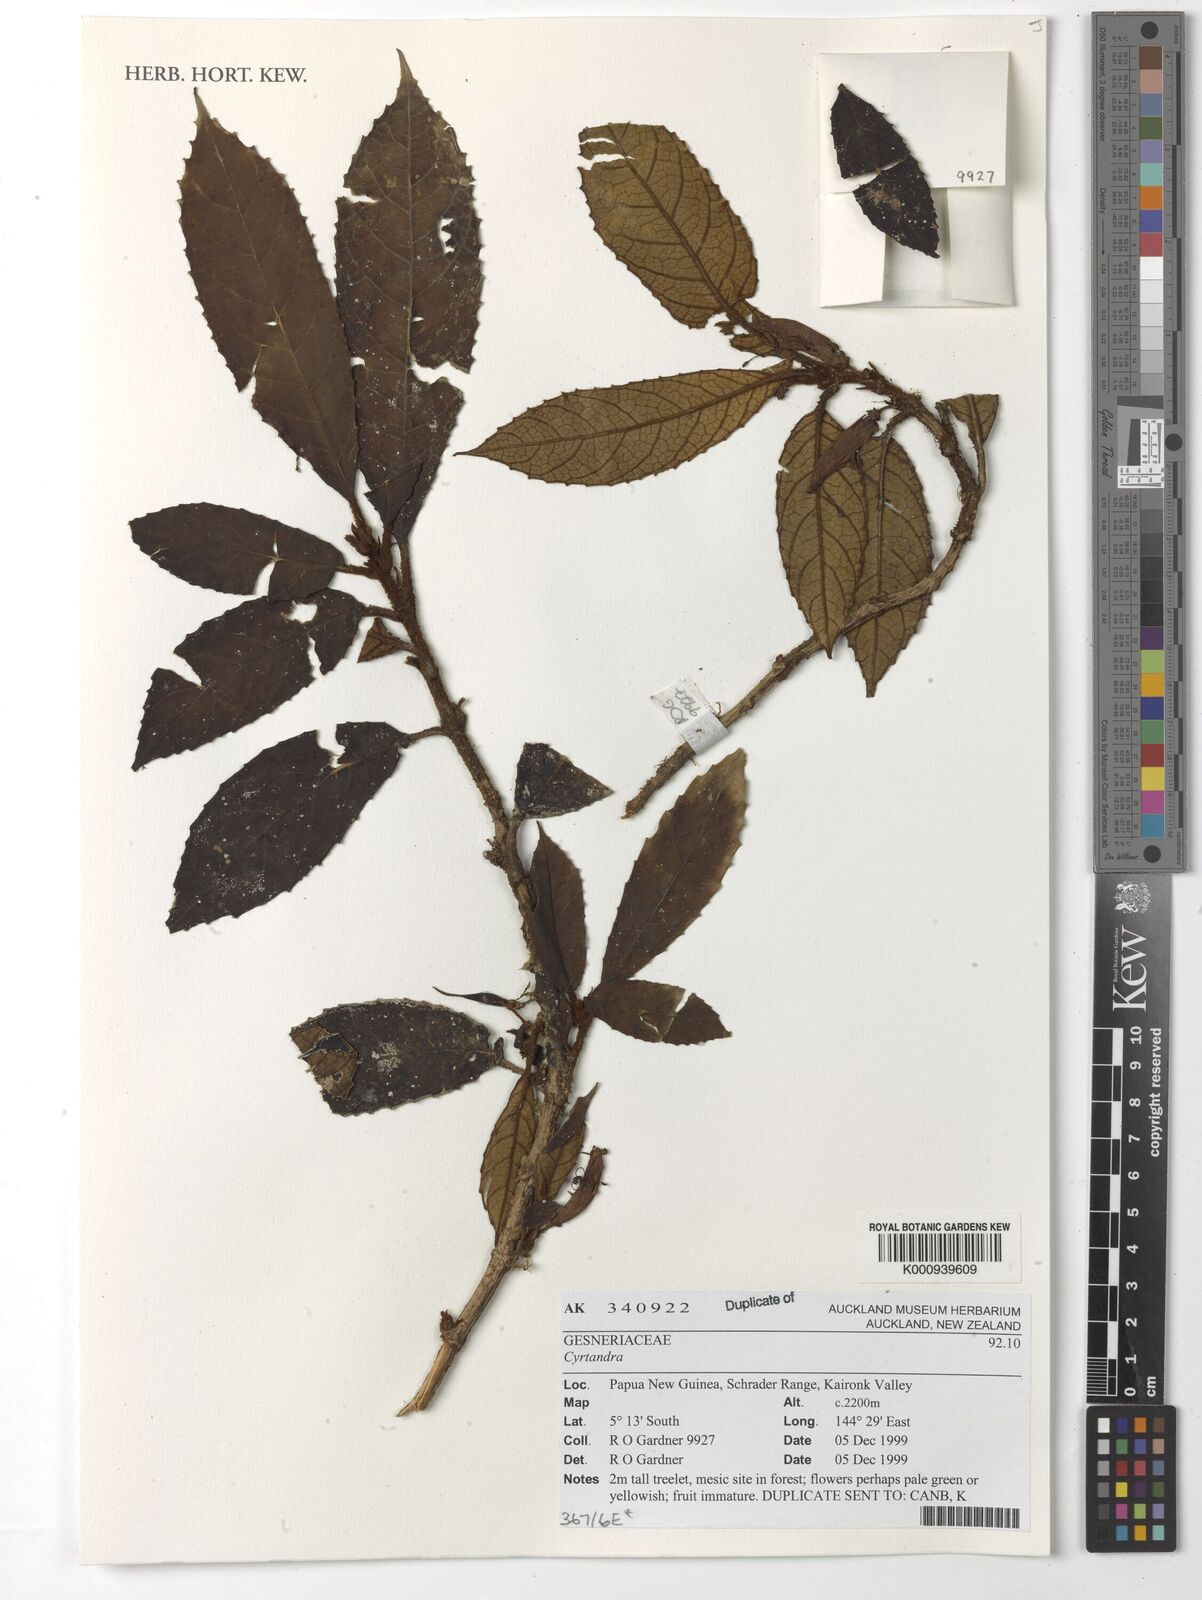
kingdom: Plantae
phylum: Tracheophyta
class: Magnoliopsida
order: Lamiales
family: Gesneriaceae
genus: Cyrtandra
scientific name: Cyrtandra
